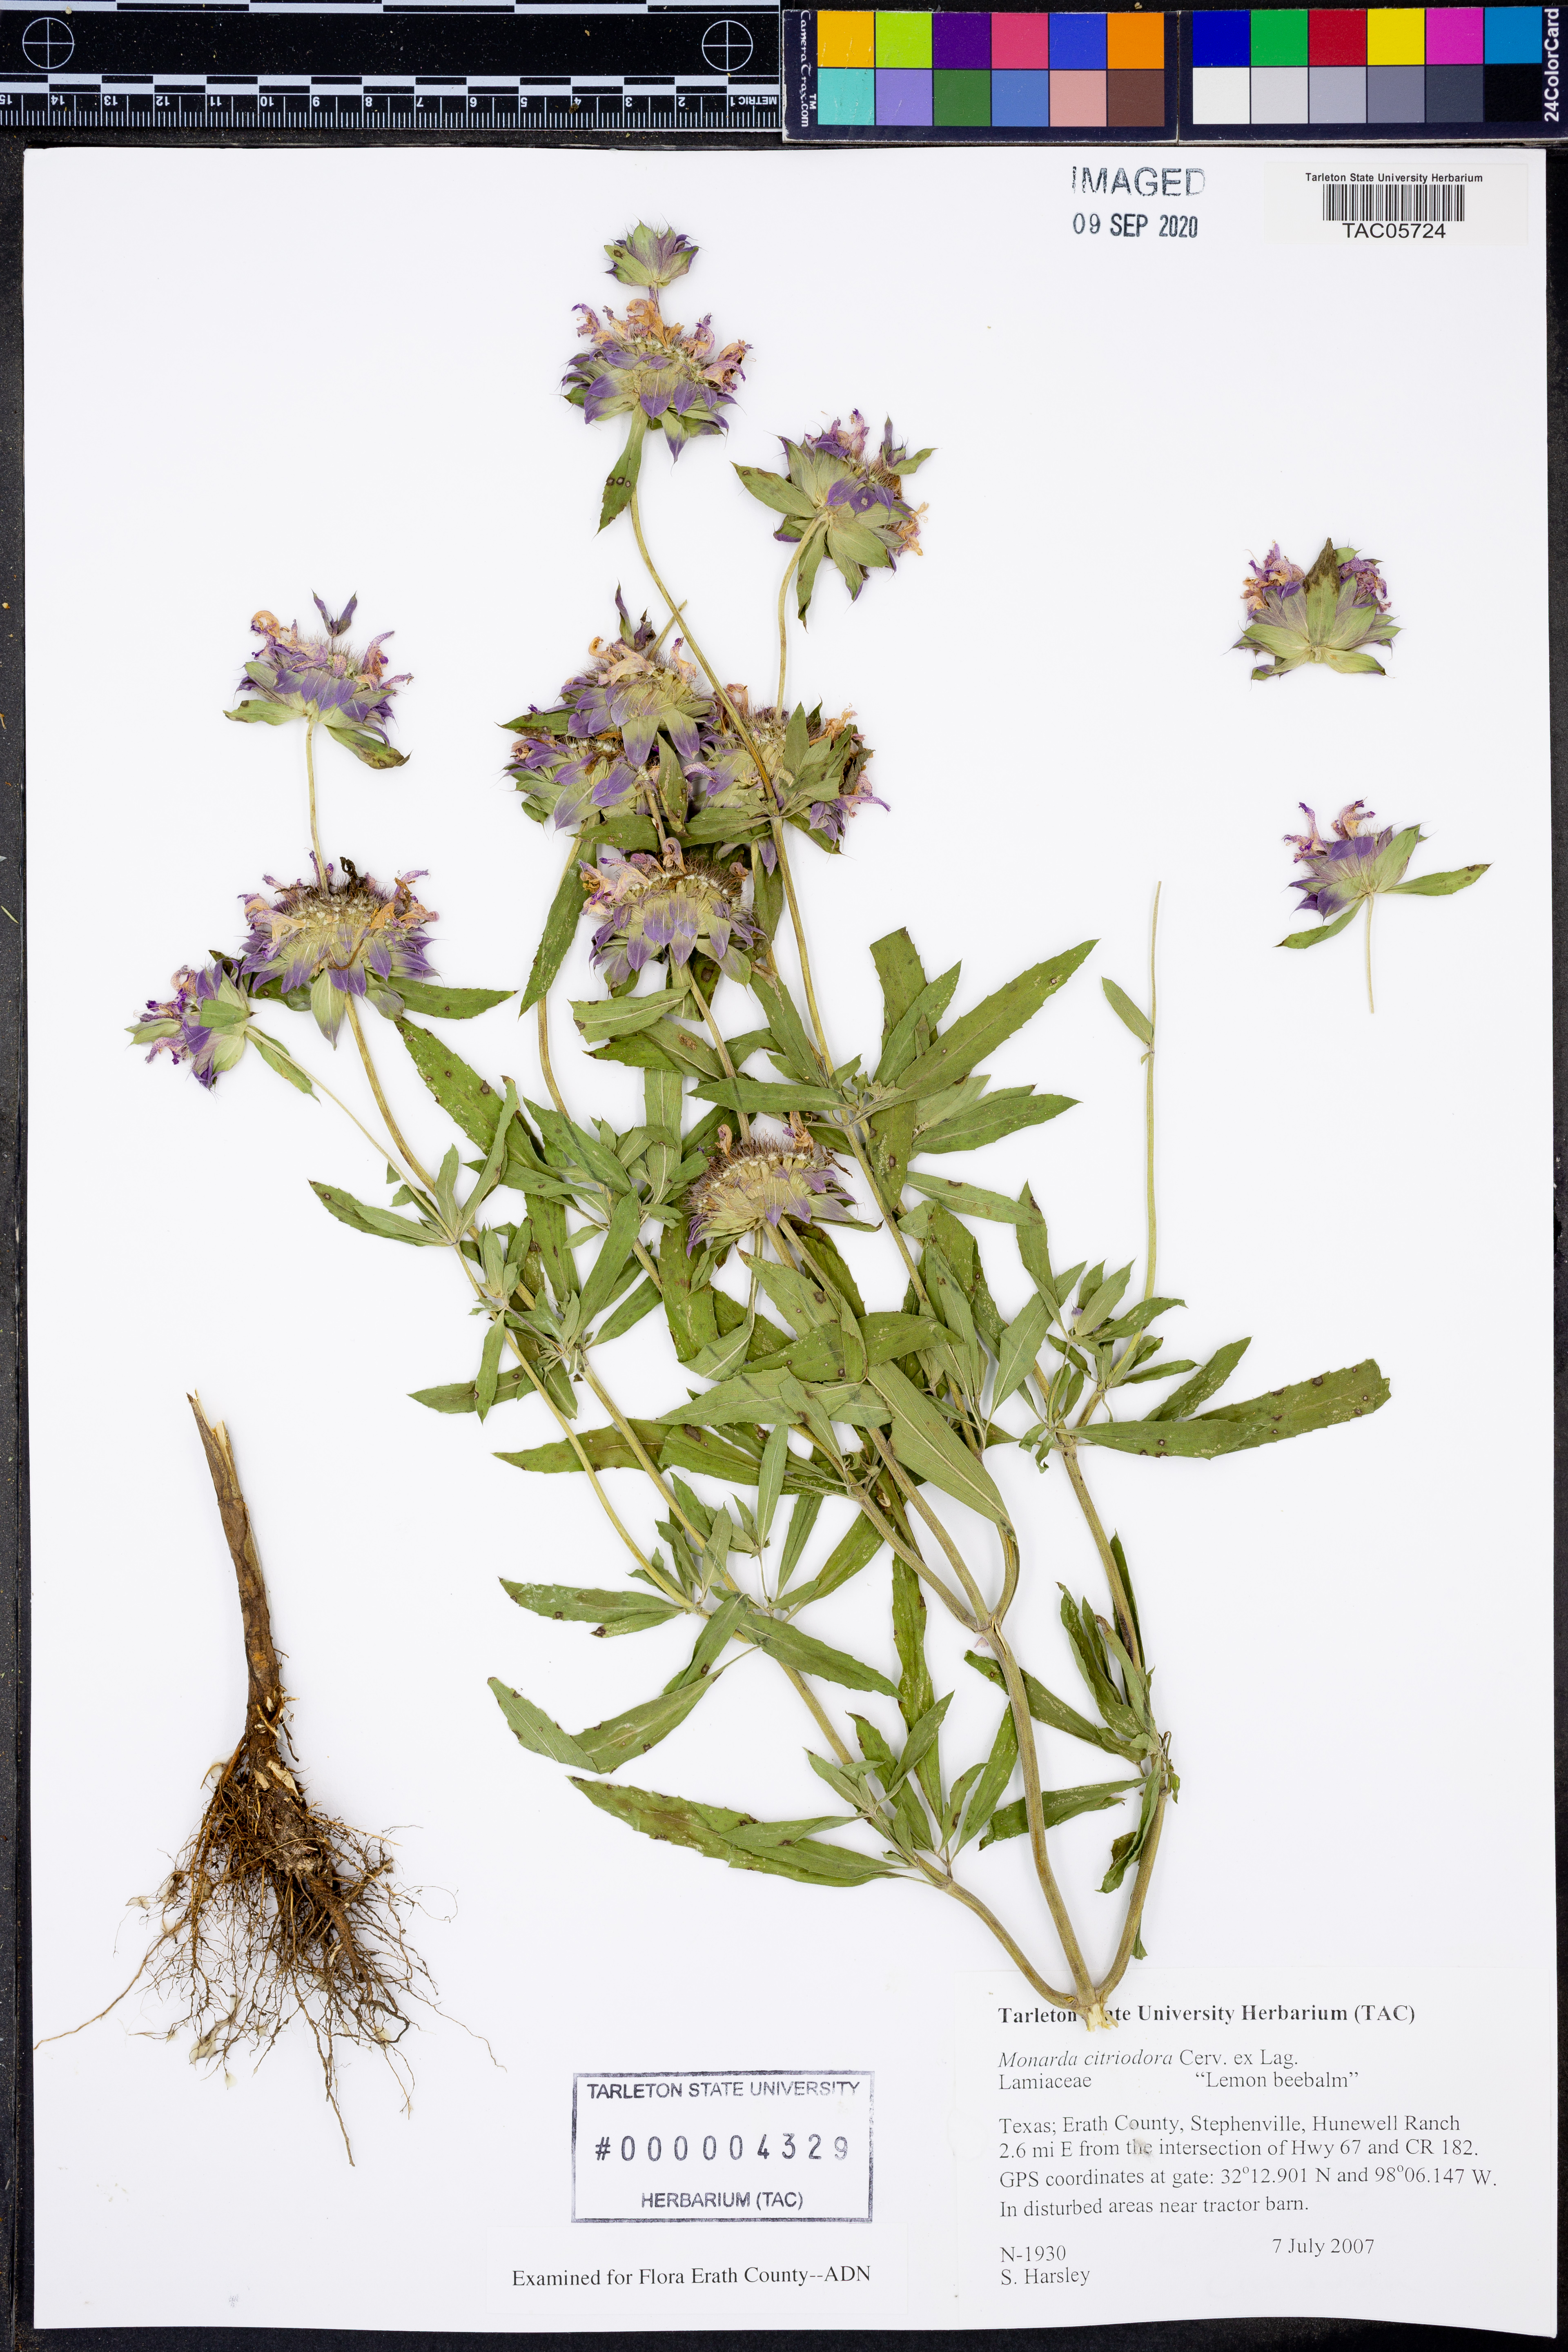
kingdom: Plantae
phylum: Tracheophyta
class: Magnoliopsida
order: Lamiales
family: Lamiaceae
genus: Monarda
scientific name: Monarda citriodora
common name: Lemon beebalm
